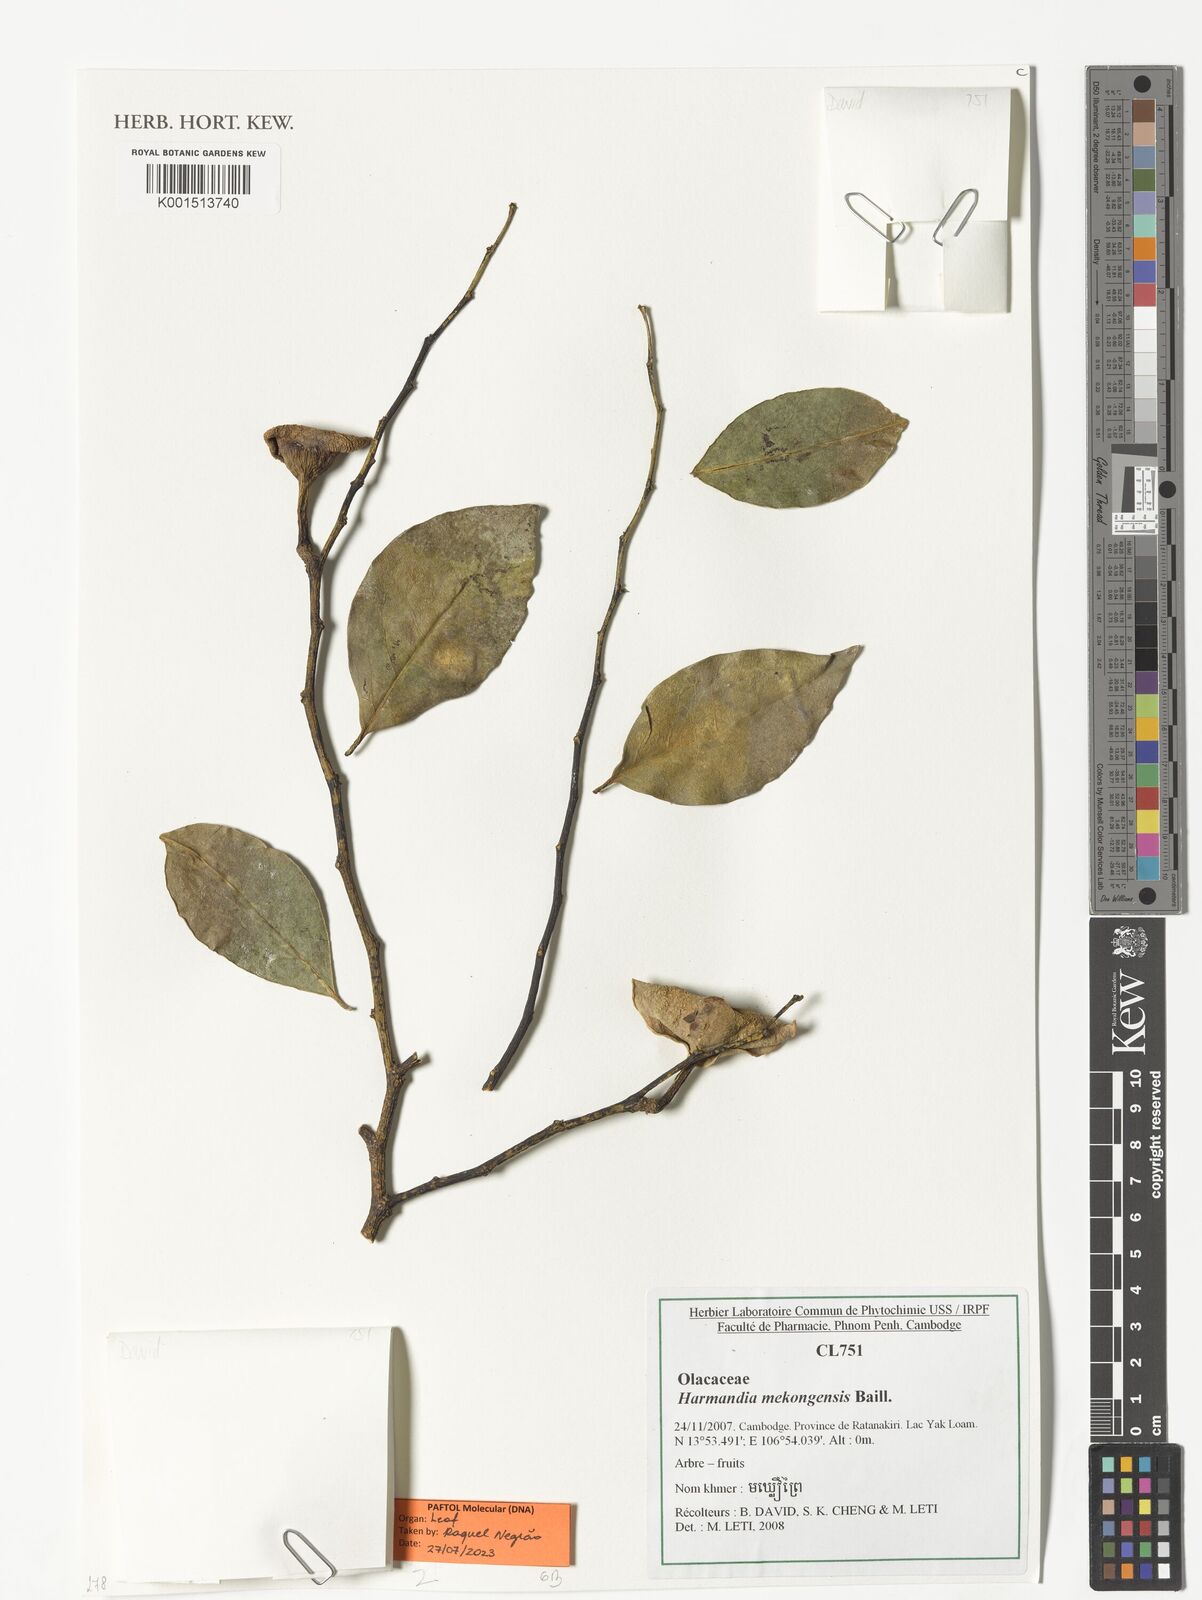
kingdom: Plantae
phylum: Tracheophyta
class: Magnoliopsida
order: Santalales
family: Aptandraceae
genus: Harmandia
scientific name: Harmandia mekongensis
